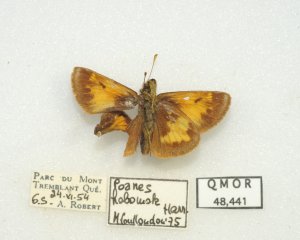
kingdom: Animalia
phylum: Arthropoda
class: Insecta
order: Lepidoptera
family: Hesperiidae
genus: Lon
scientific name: Lon hobomok
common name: Hobomok Skipper
